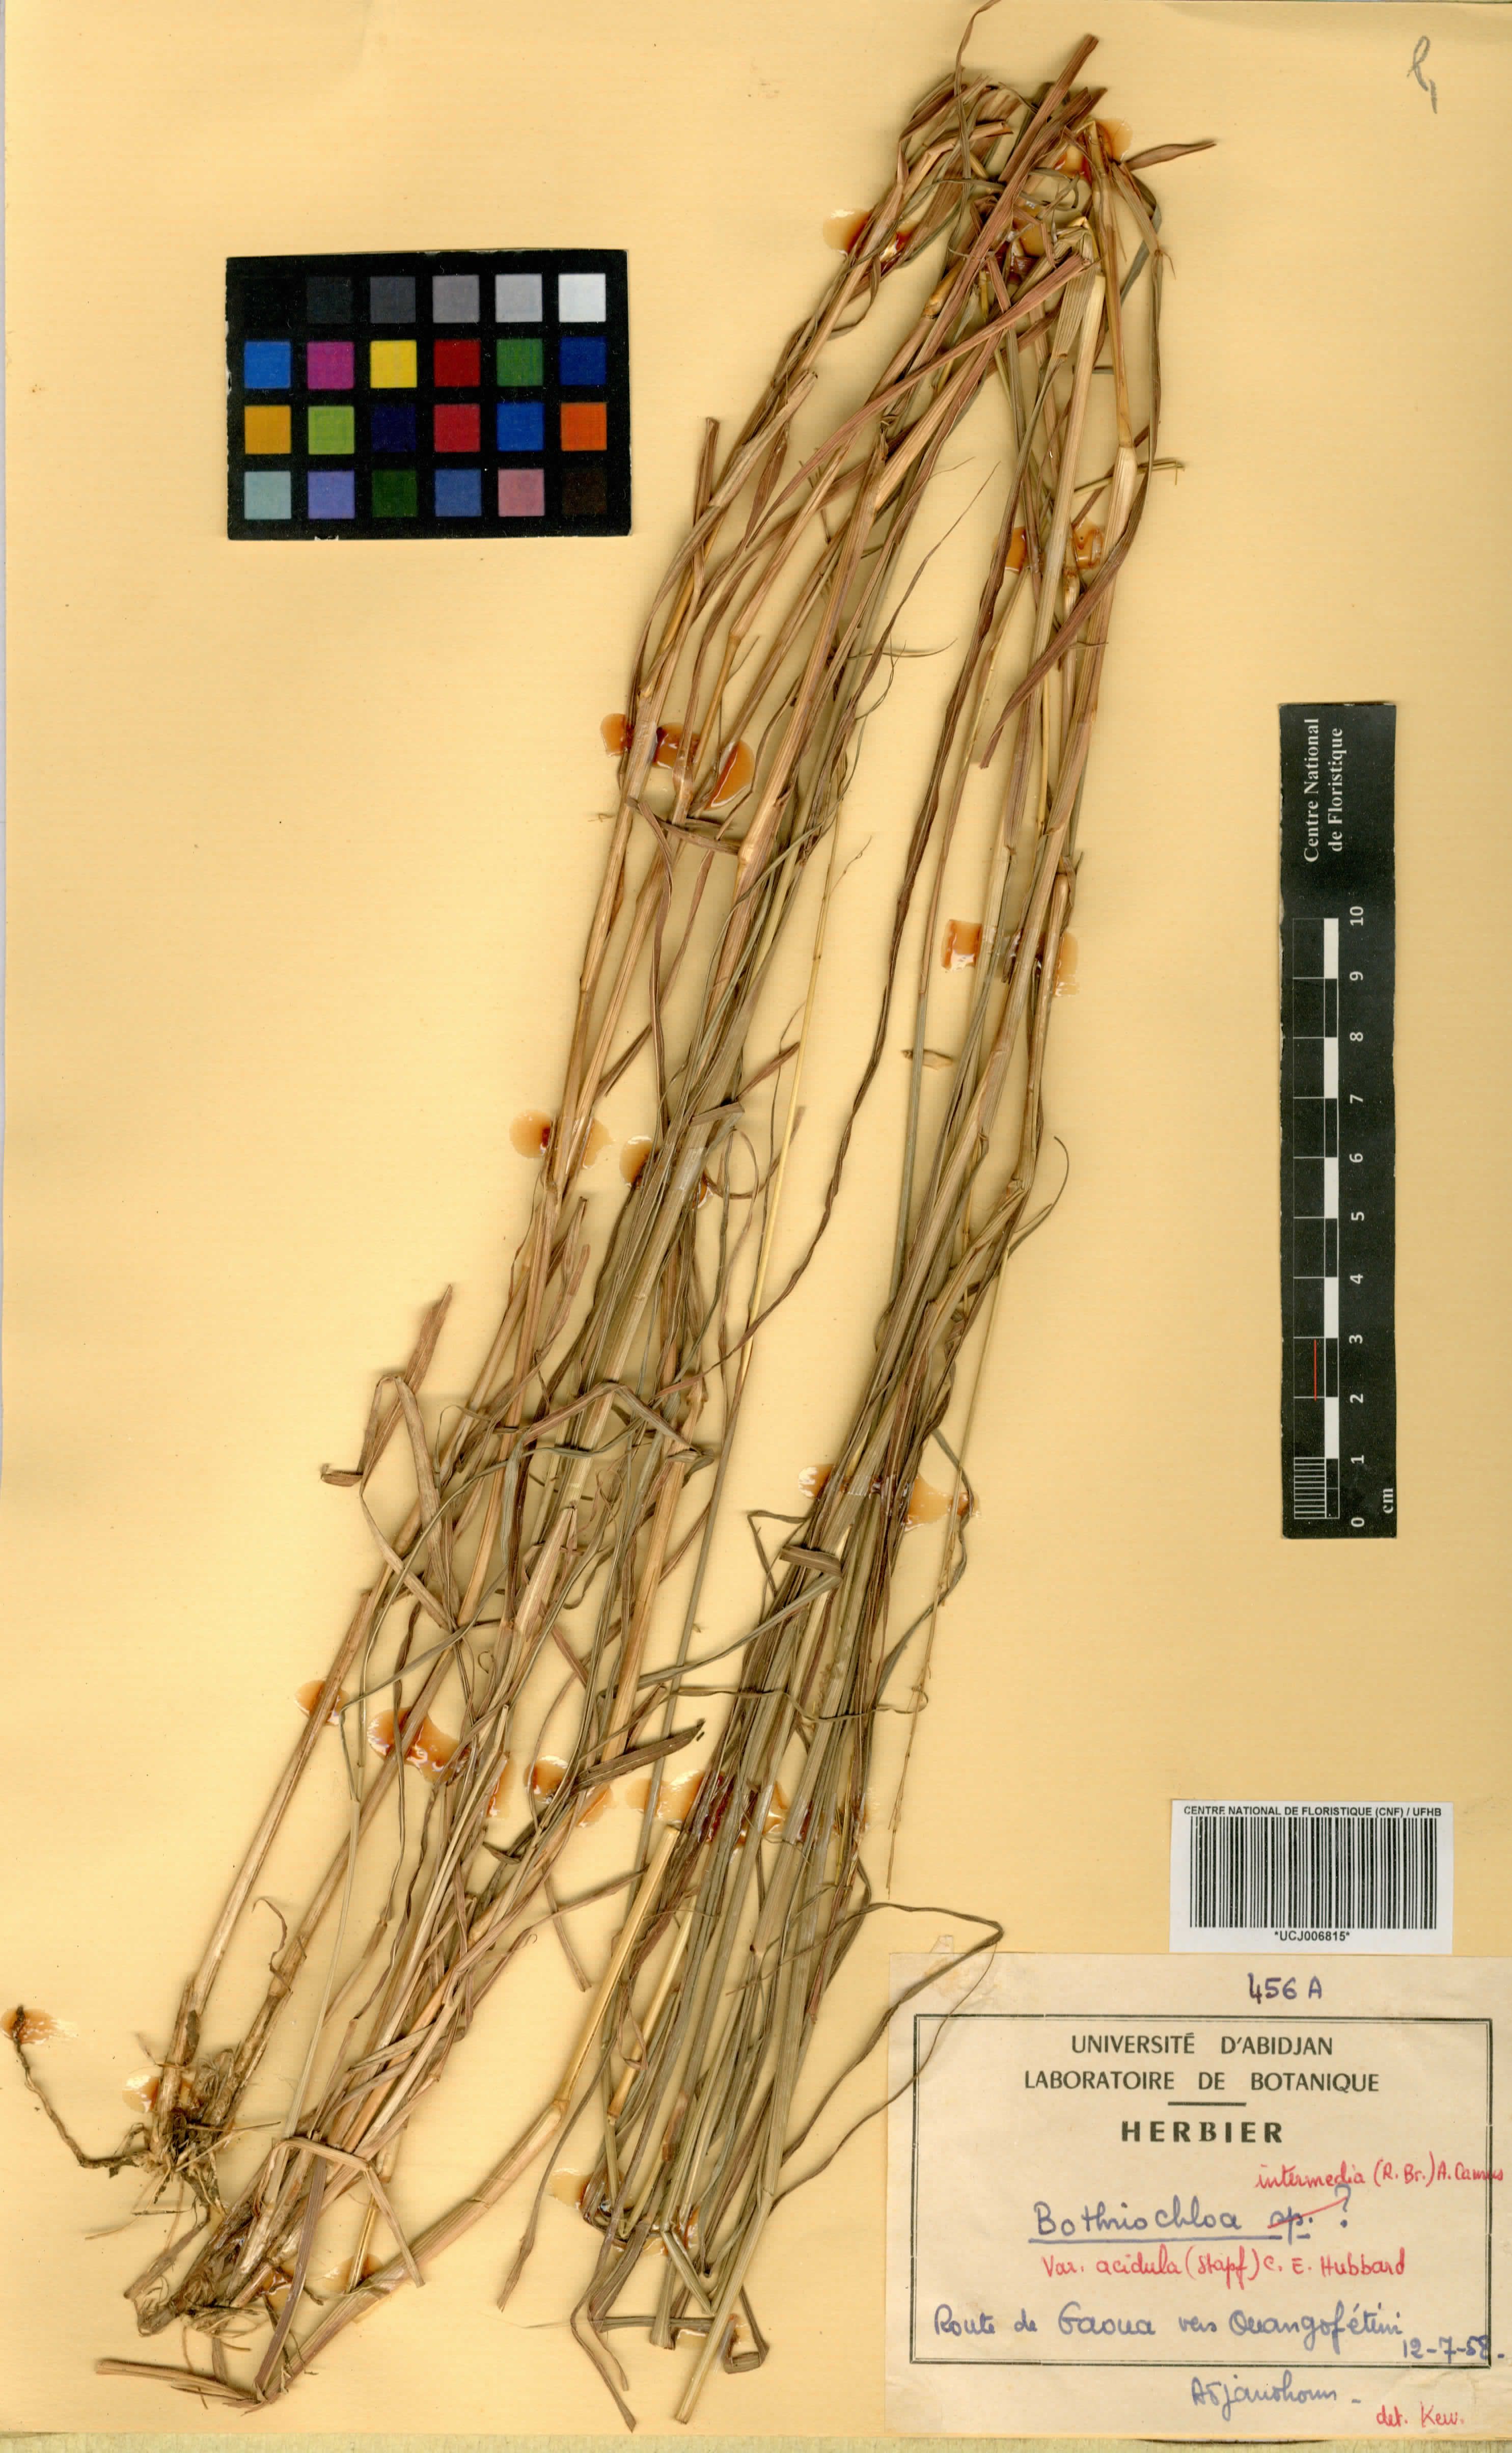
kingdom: Plantae
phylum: Tracheophyta
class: Liliopsida
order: Poales
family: Poaceae
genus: Bothriochloa
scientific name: Bothriochloa bladhii
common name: Caucasian bluestem
